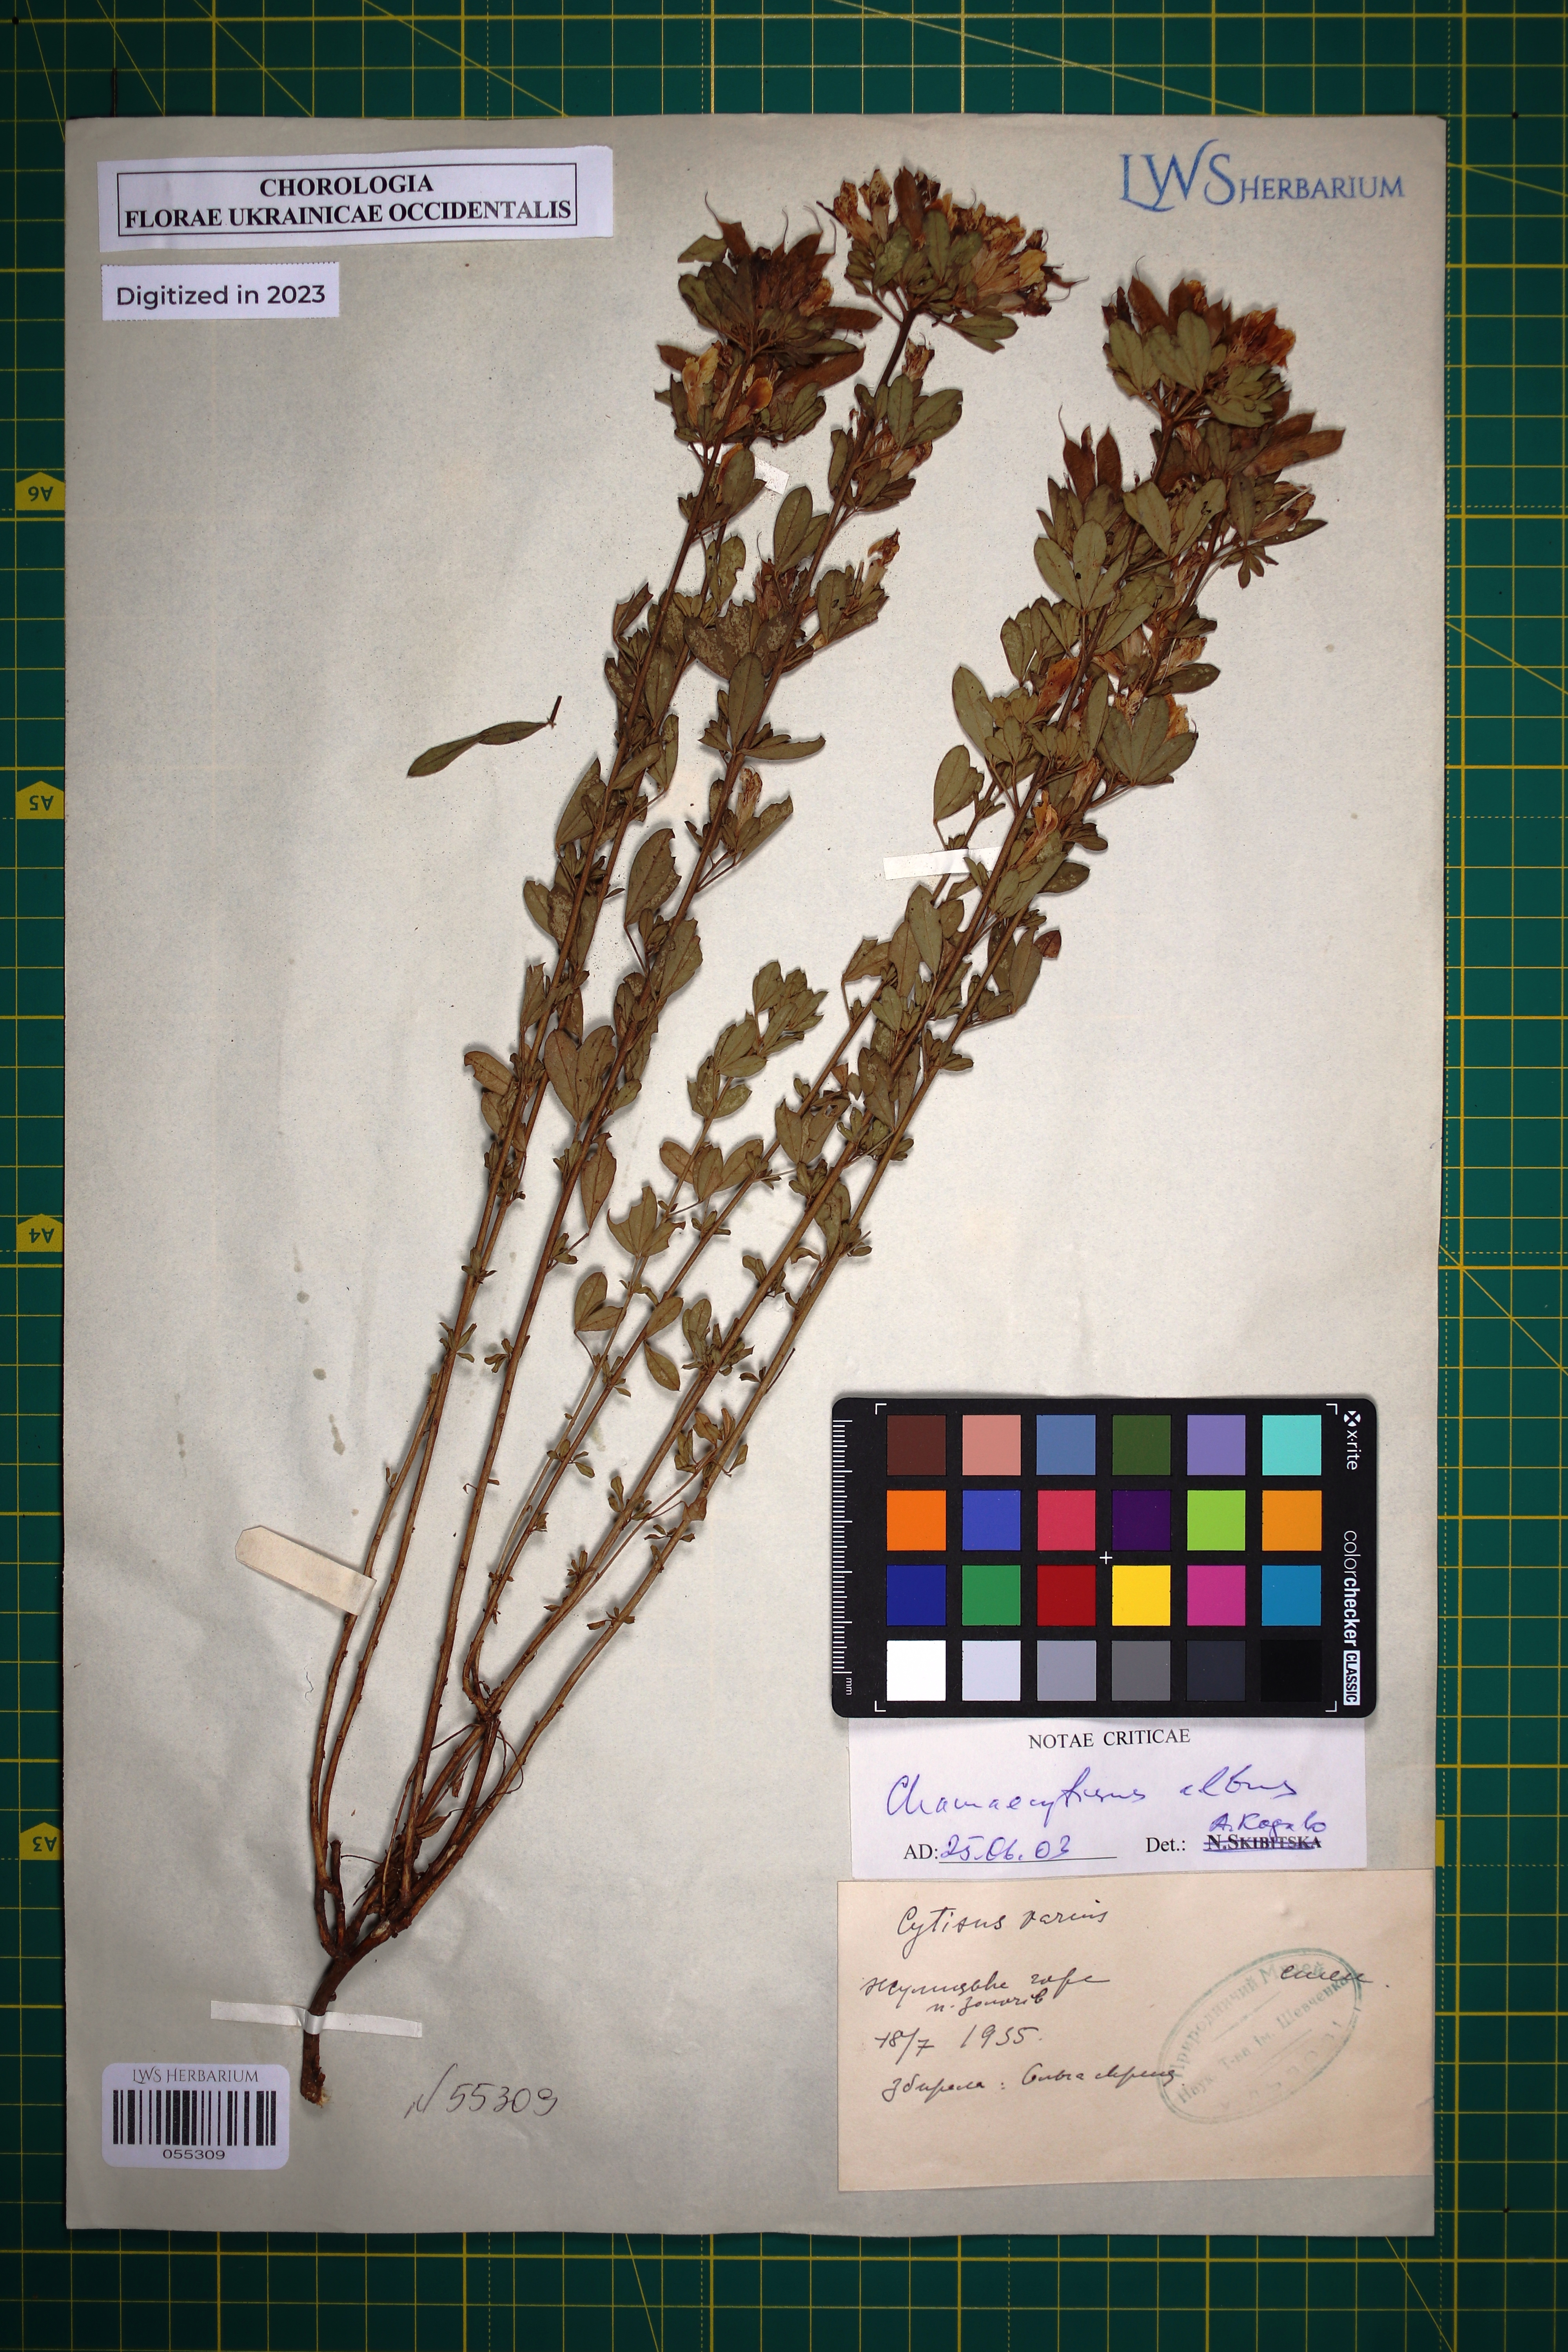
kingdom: Plantae
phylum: Tracheophyta
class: Magnoliopsida
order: Fabales
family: Fabaceae
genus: Chamaecytisus
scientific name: Chamaecytisus albus
